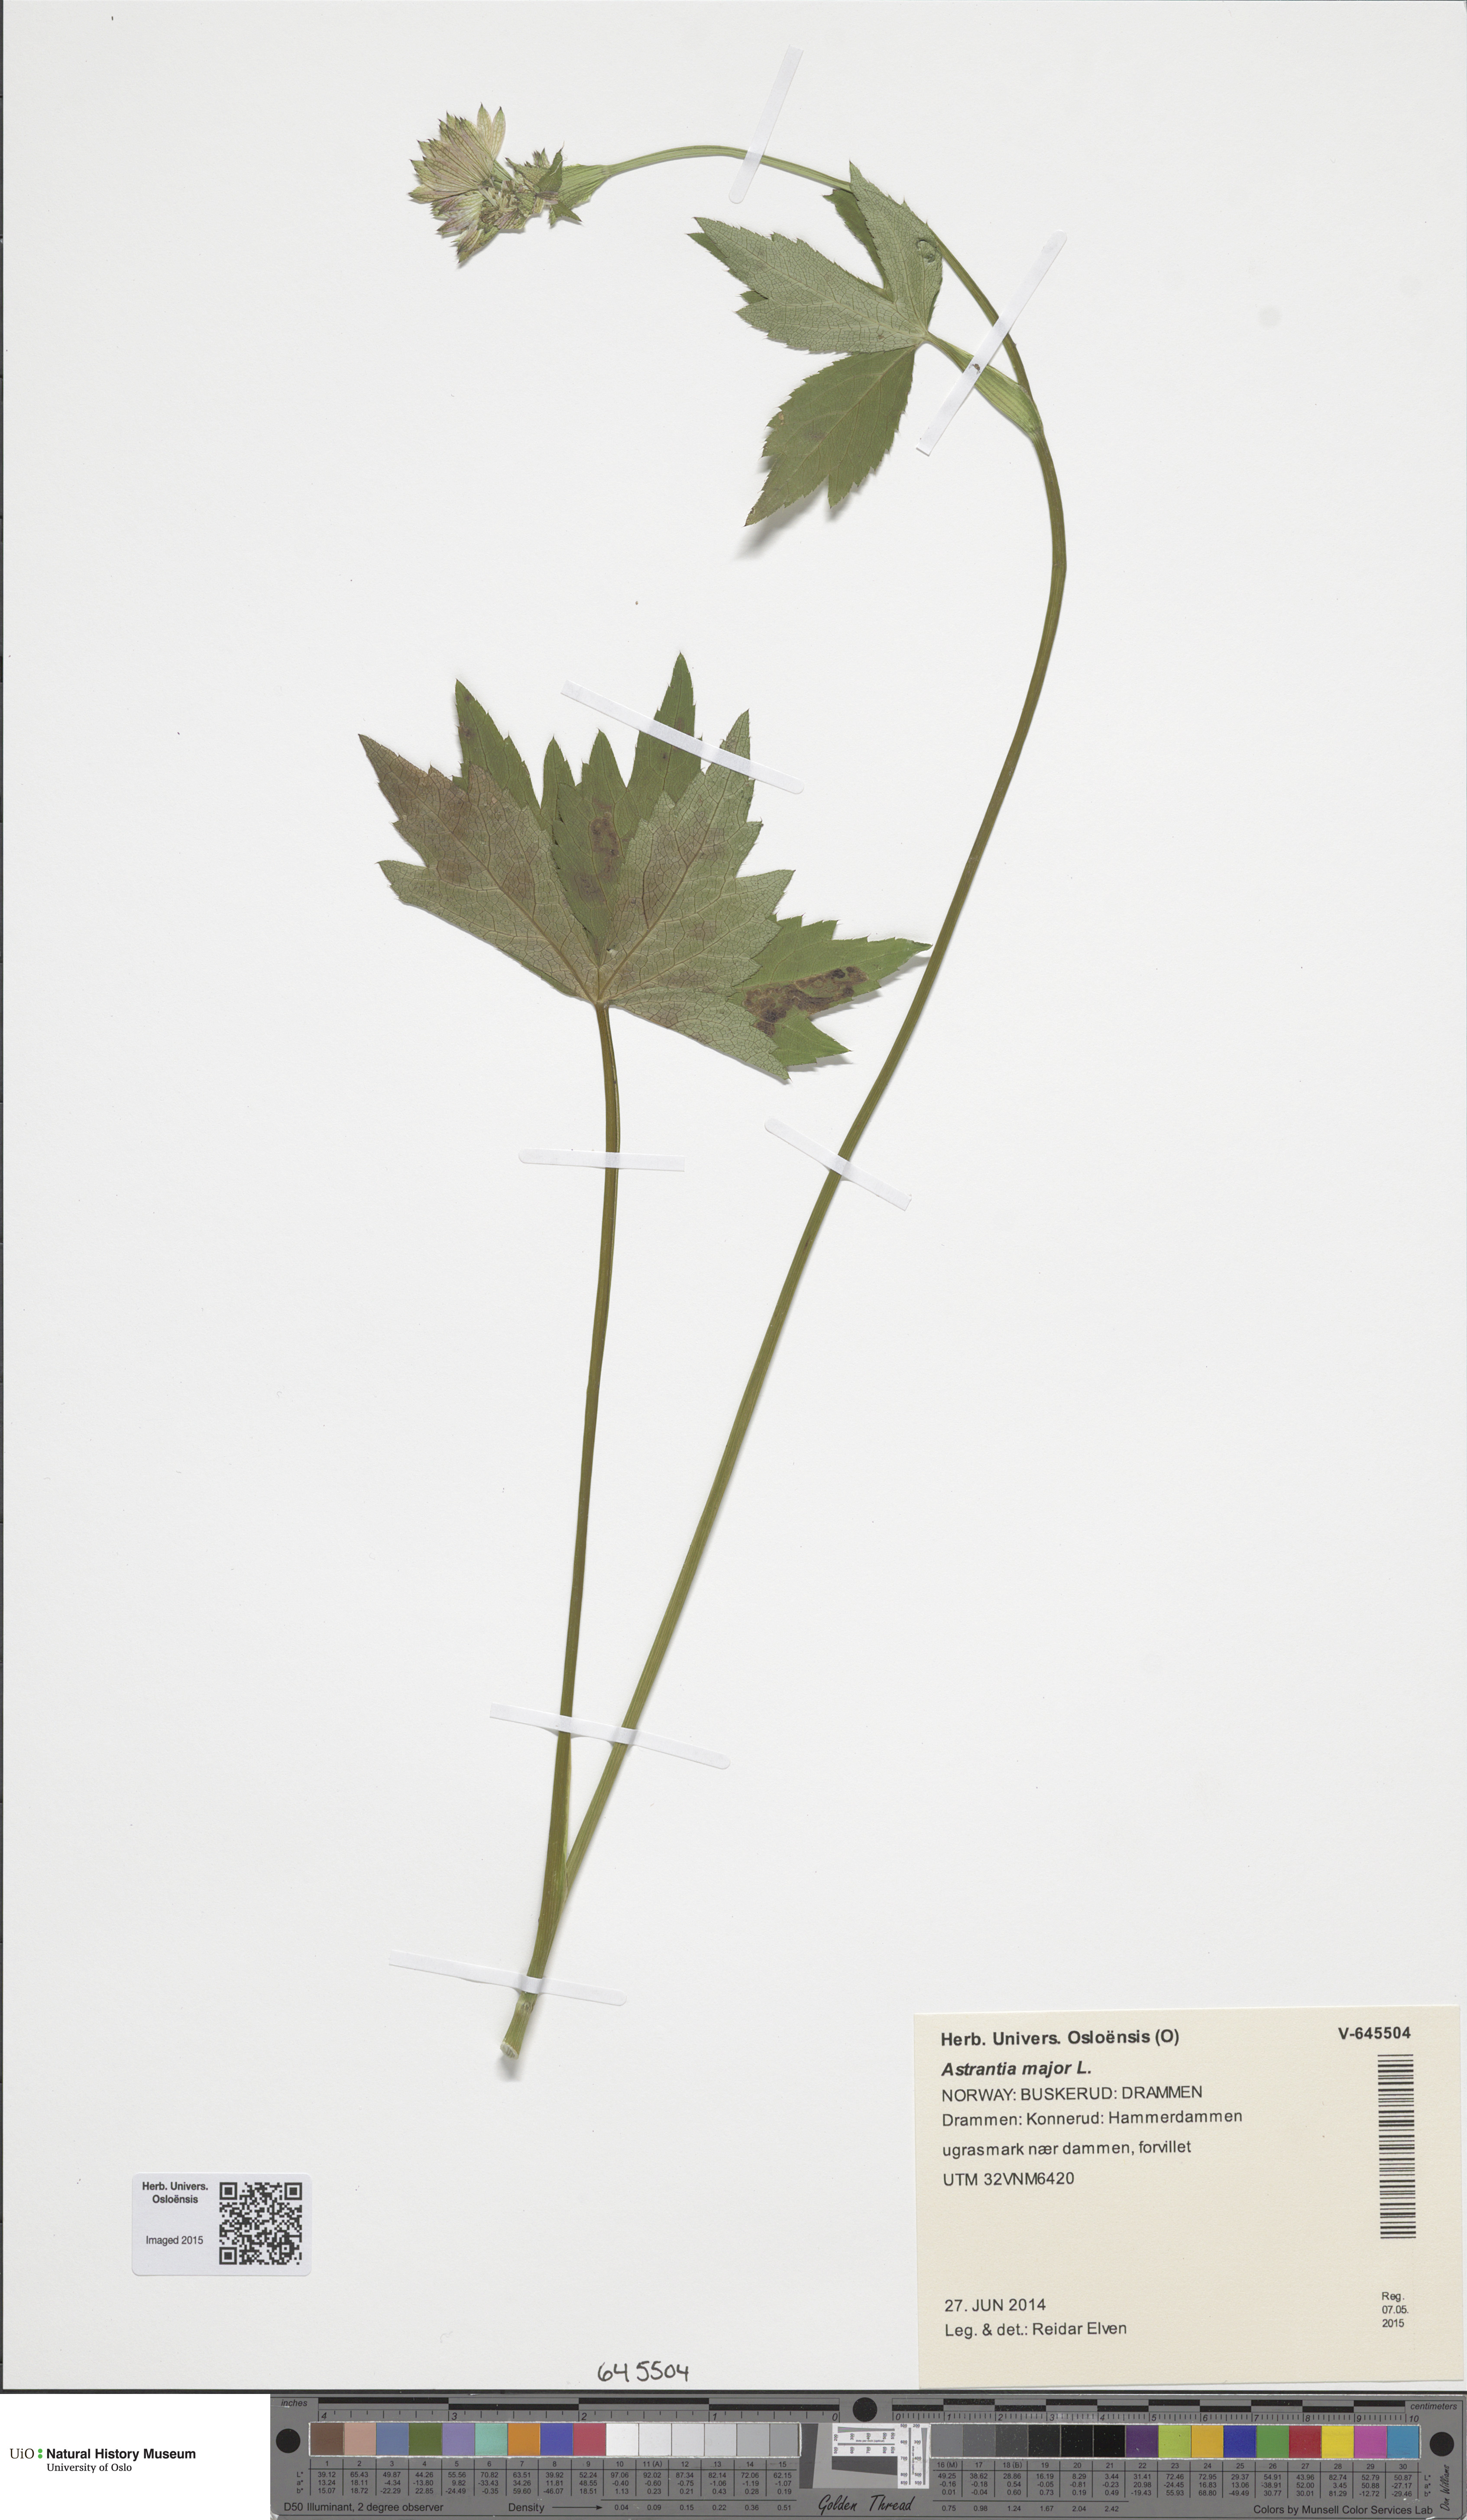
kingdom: Plantae
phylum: Tracheophyta
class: Magnoliopsida
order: Apiales
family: Apiaceae
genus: Astrantia
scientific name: Astrantia major
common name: Greater masterwort
